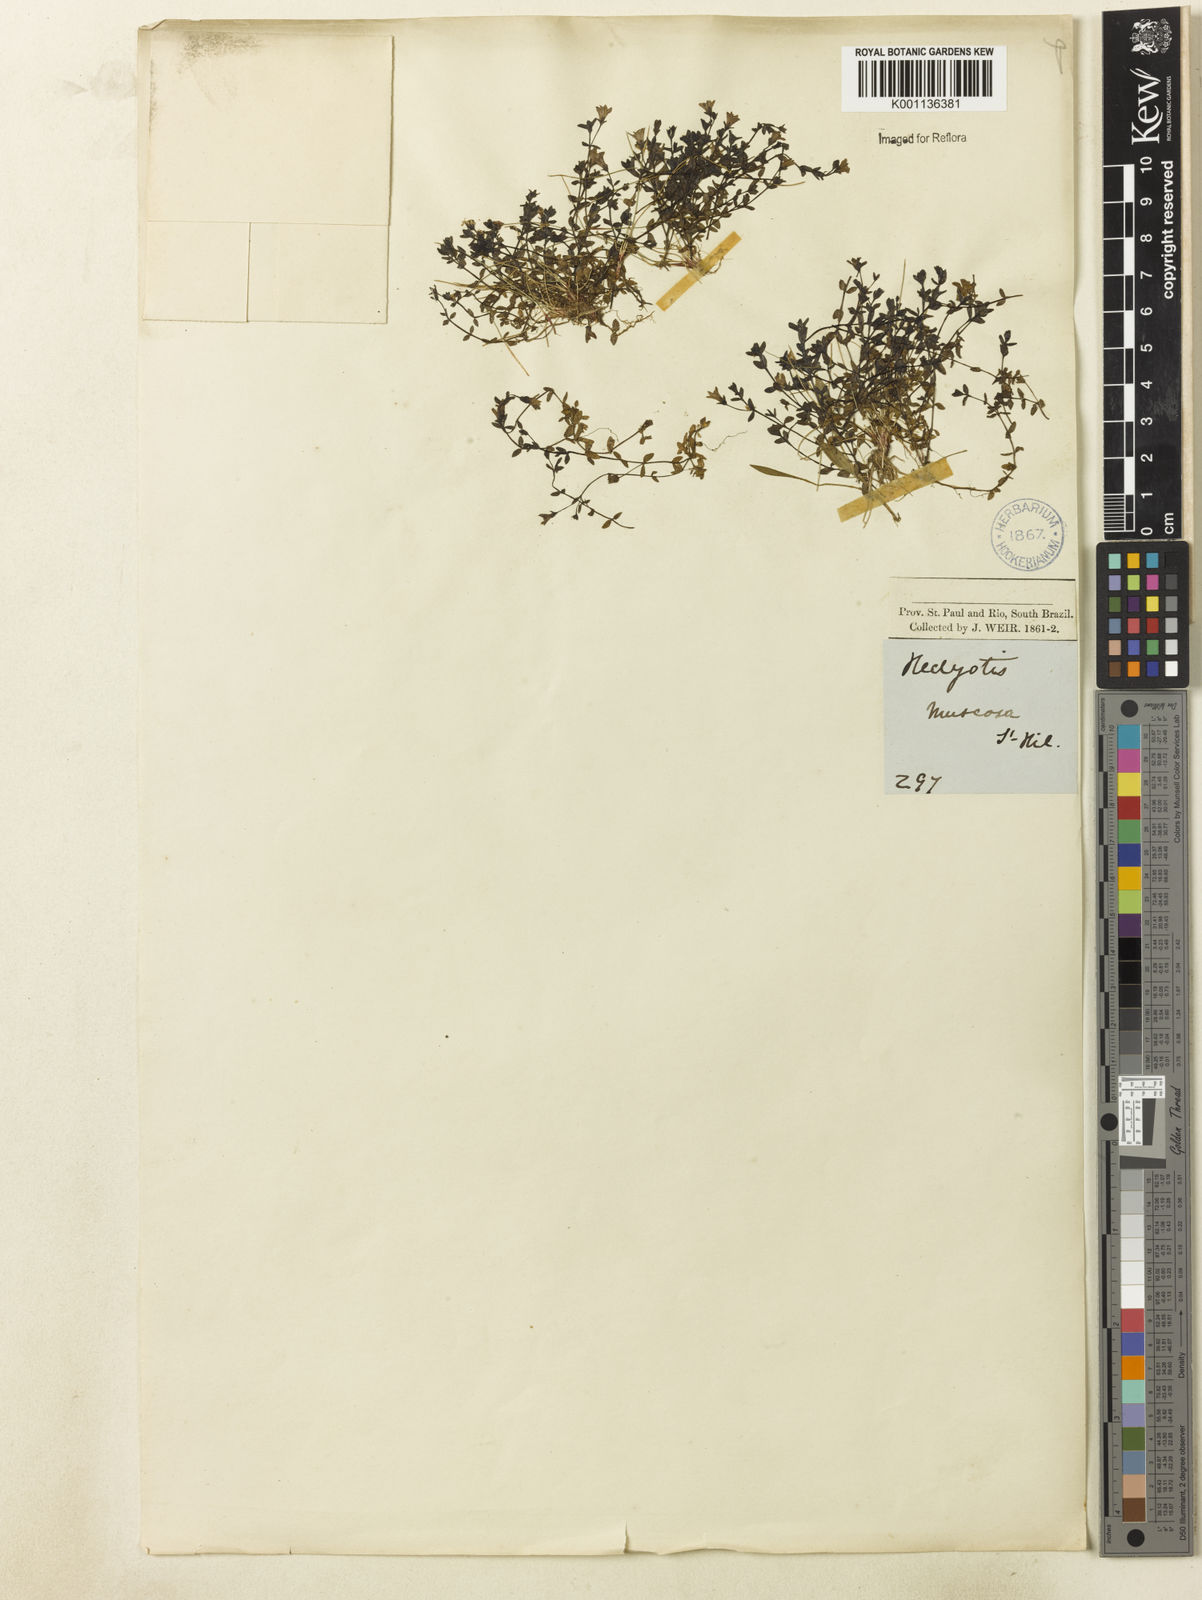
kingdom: Plantae
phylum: Tracheophyta
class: Magnoliopsida
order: Gentianales
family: Rubiaceae
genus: Oldenlandia
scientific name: Oldenlandia salzmannii
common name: Salzmann's mille graines
